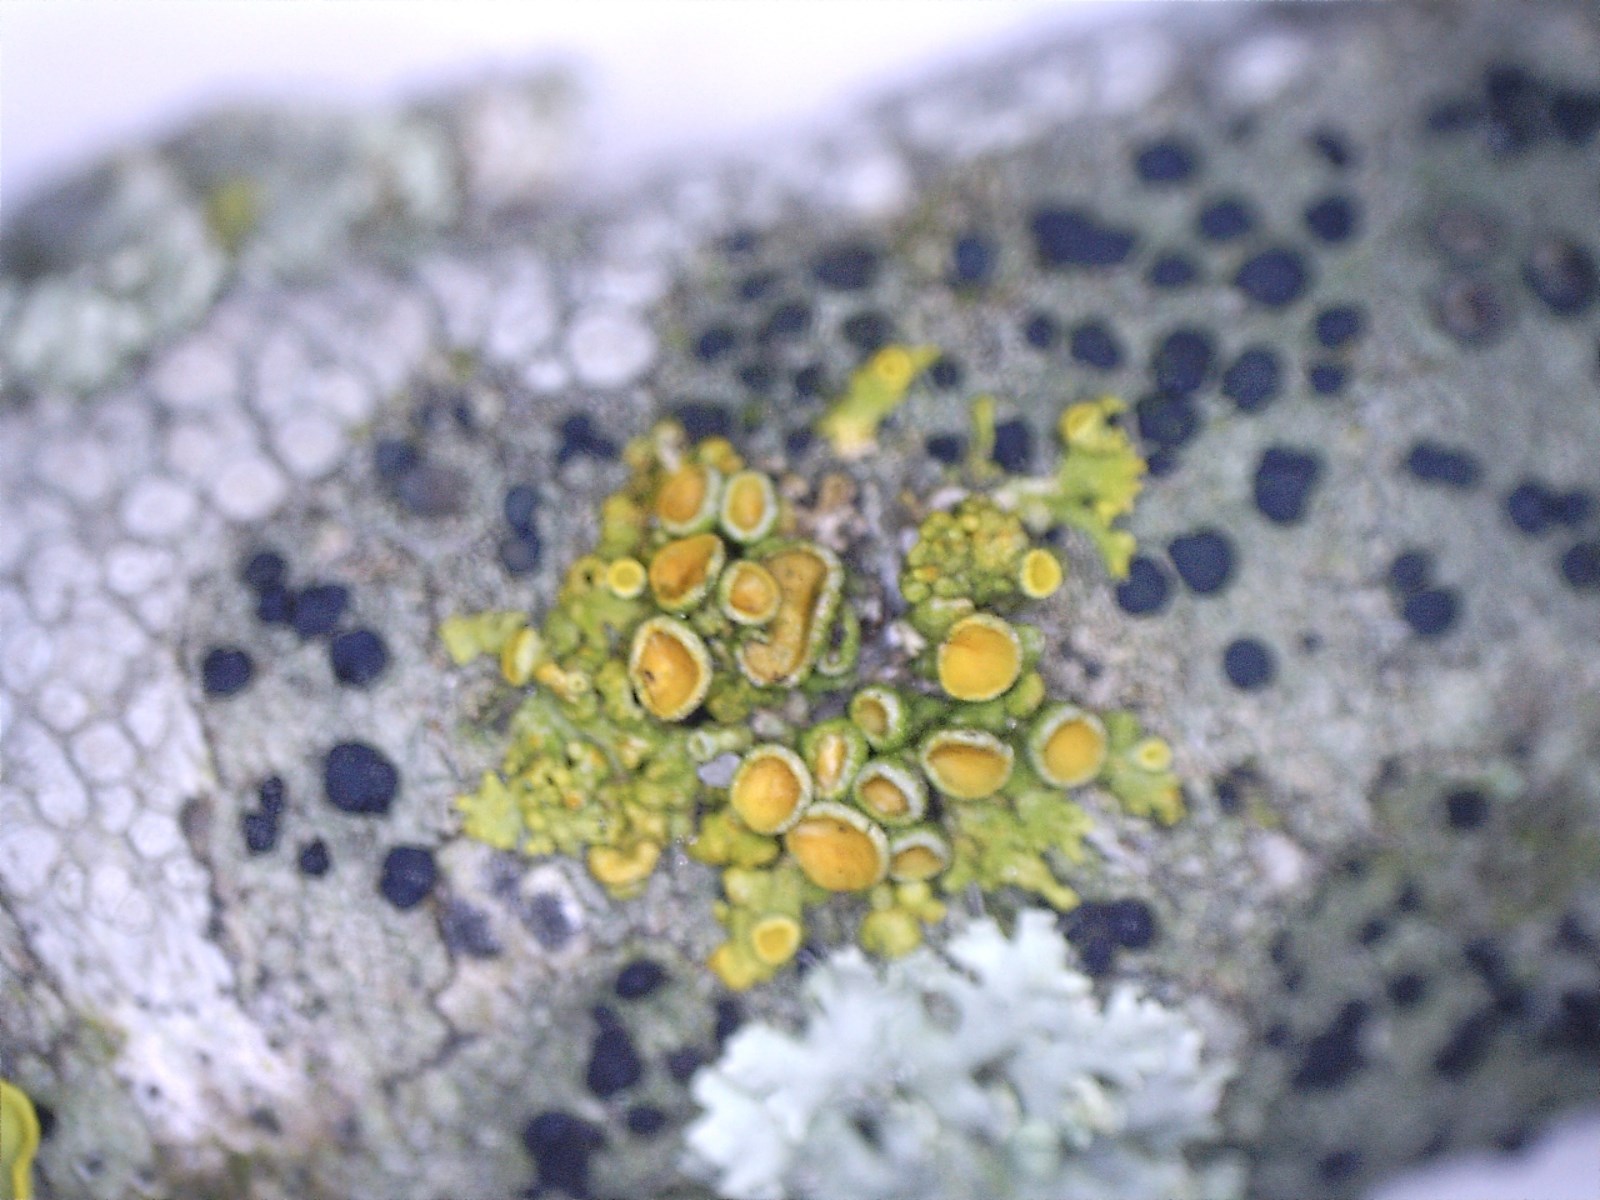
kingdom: Fungi
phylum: Ascomycota
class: Lecanoromycetes
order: Teloschistales
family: Teloschistaceae
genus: Polycauliona
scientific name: Polycauliona polycarpa
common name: mangefrugtet orangelav
